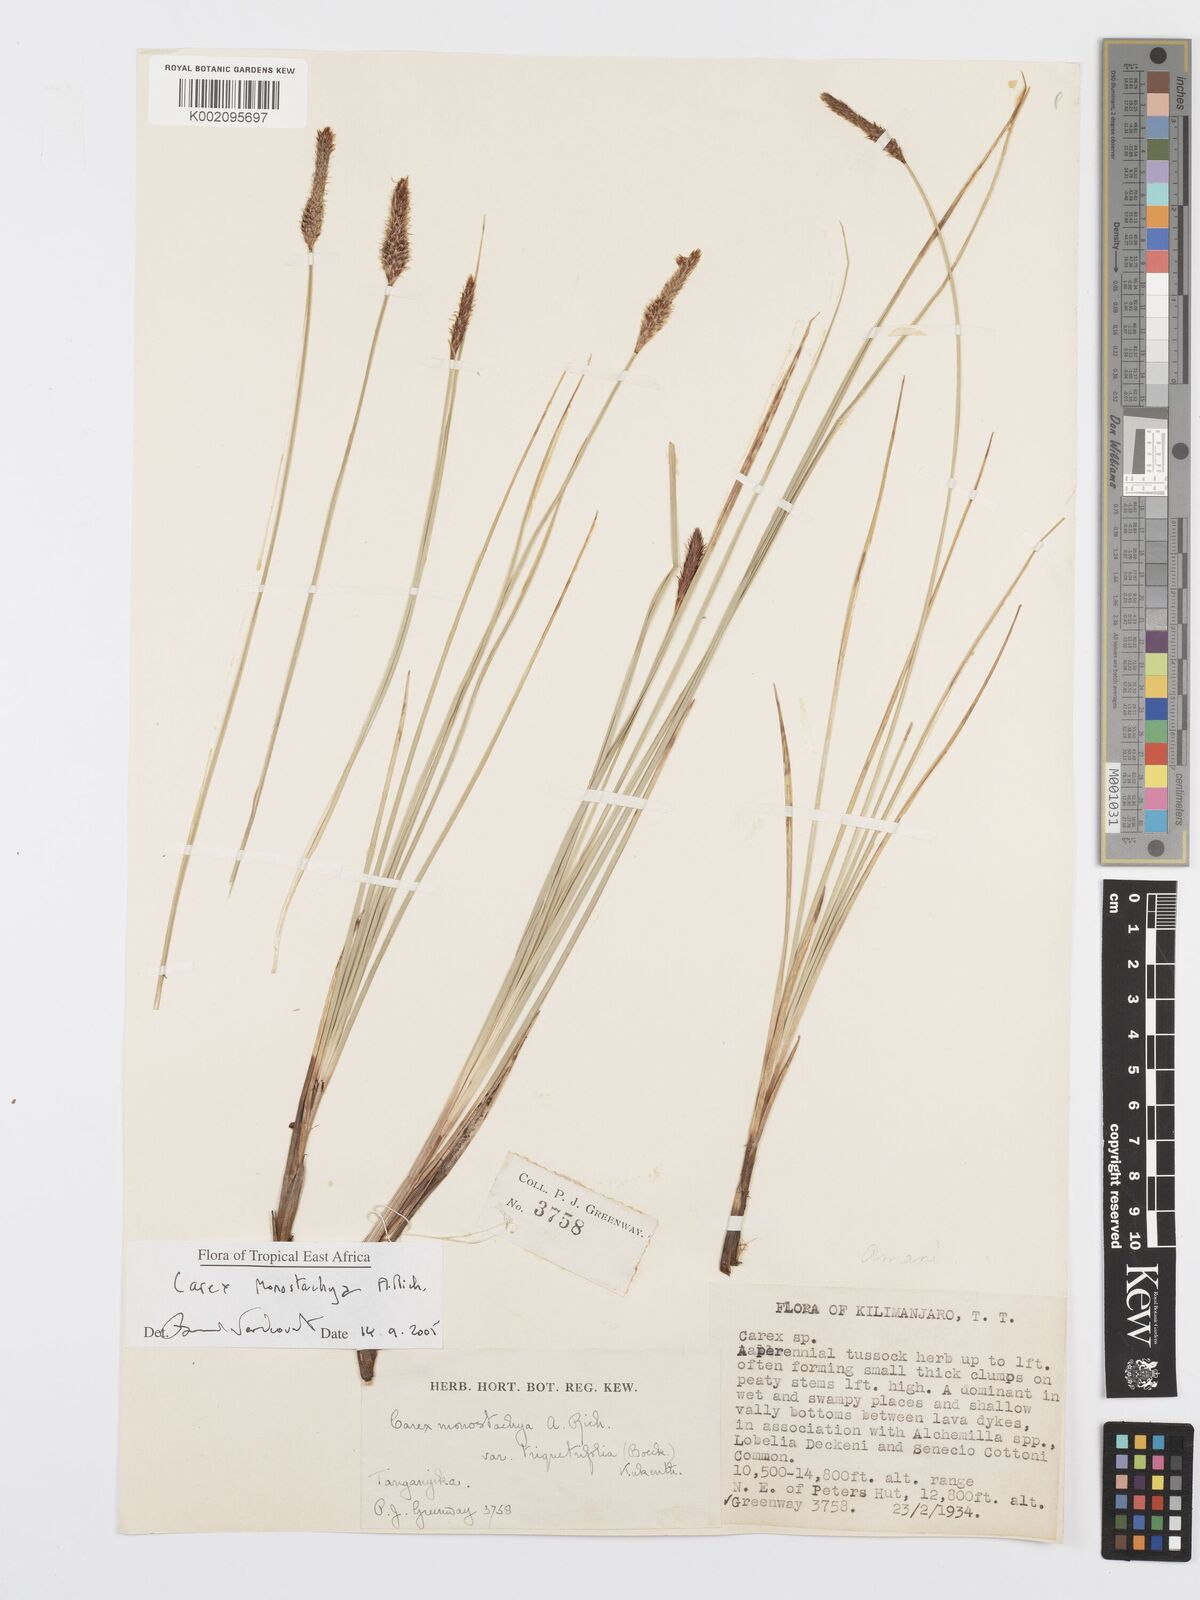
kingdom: Plantae
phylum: Tracheophyta
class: Liliopsida
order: Poales
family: Cyperaceae
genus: Carex
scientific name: Carex monostachya
